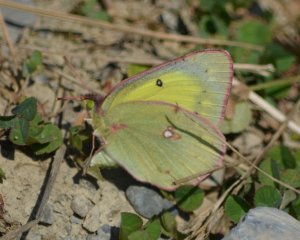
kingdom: Animalia
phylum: Arthropoda
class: Insecta
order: Lepidoptera
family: Pieridae
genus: Colias
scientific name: Colias eurytheme
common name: Orange Sulphur
